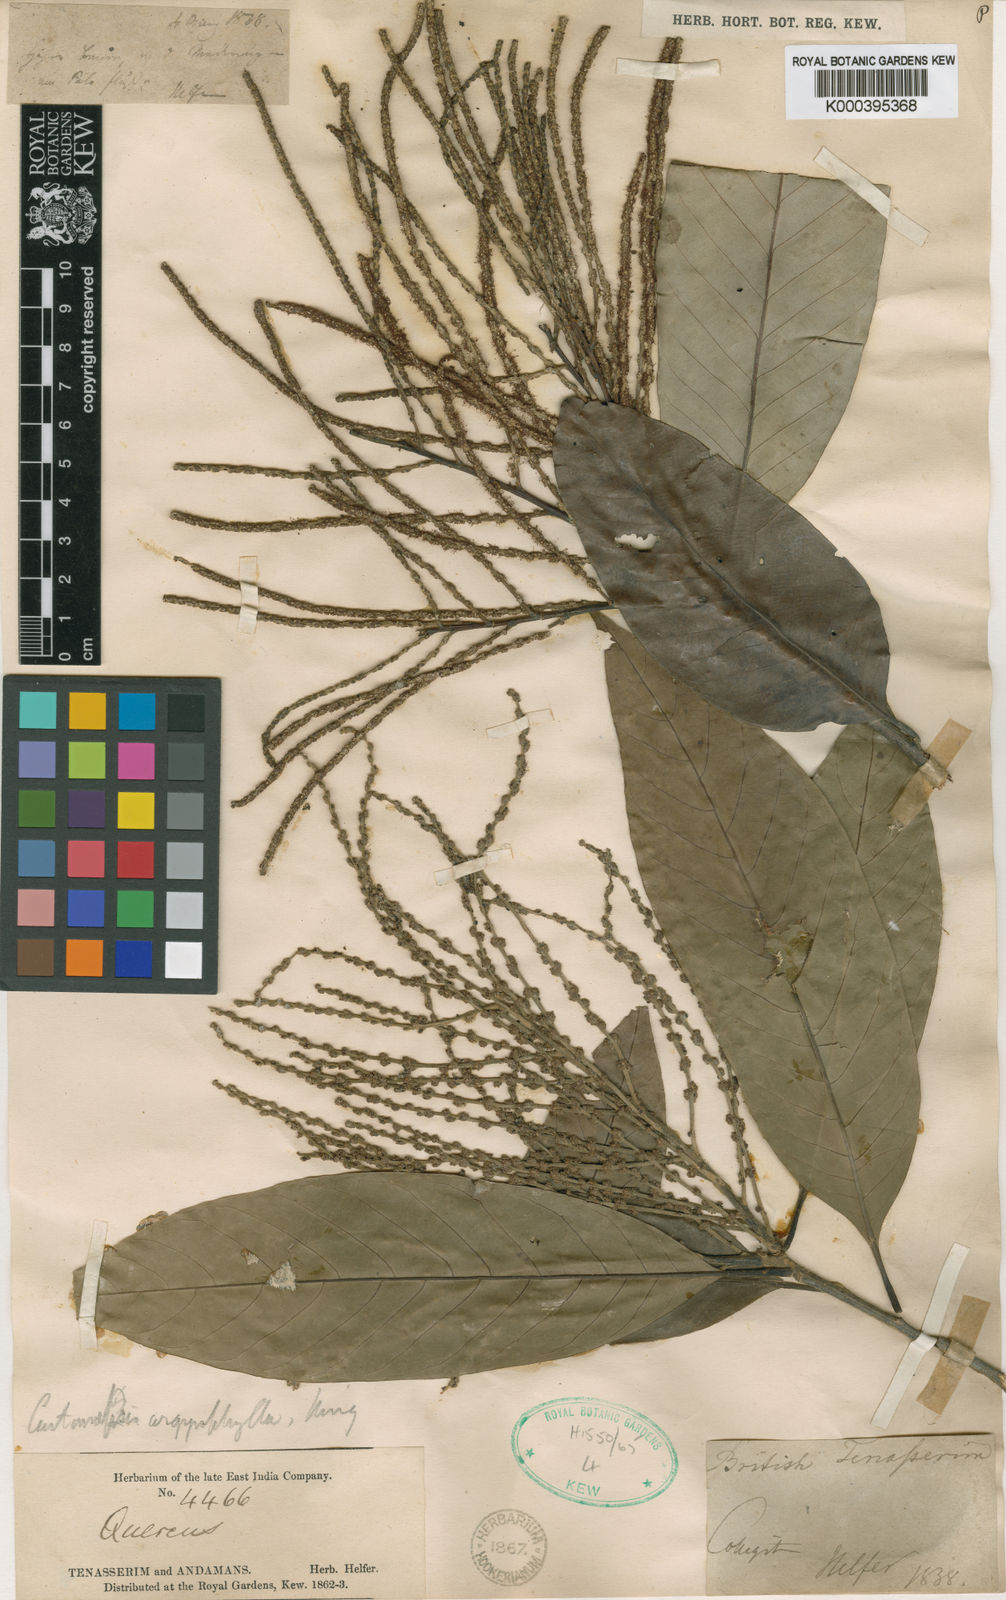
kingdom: Plantae
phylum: Tracheophyta
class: Magnoliopsida
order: Fagales
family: Fagaceae
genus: Castanopsis
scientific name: Castanopsis argyrophylla
